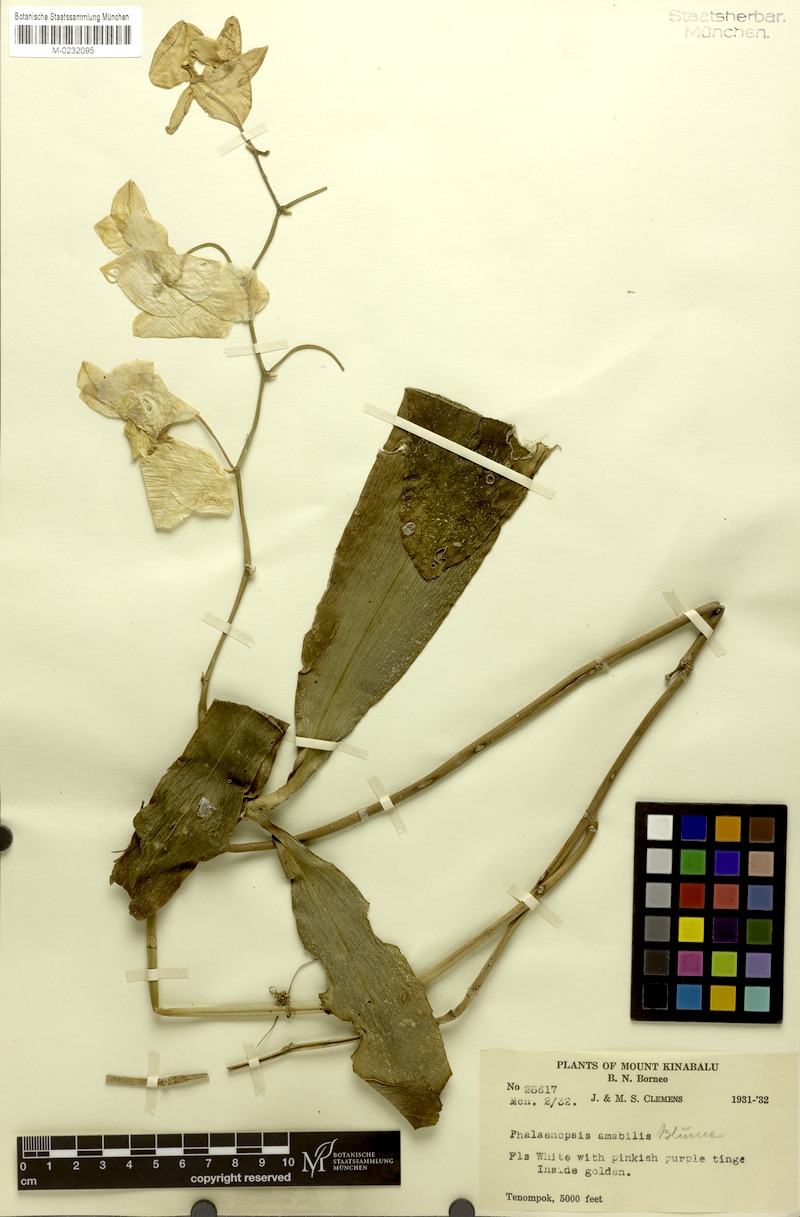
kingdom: Plantae
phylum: Tracheophyta
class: Liliopsida
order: Asparagales
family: Orchidaceae
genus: Phalaenopsis
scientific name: Phalaenopsis amabilis
